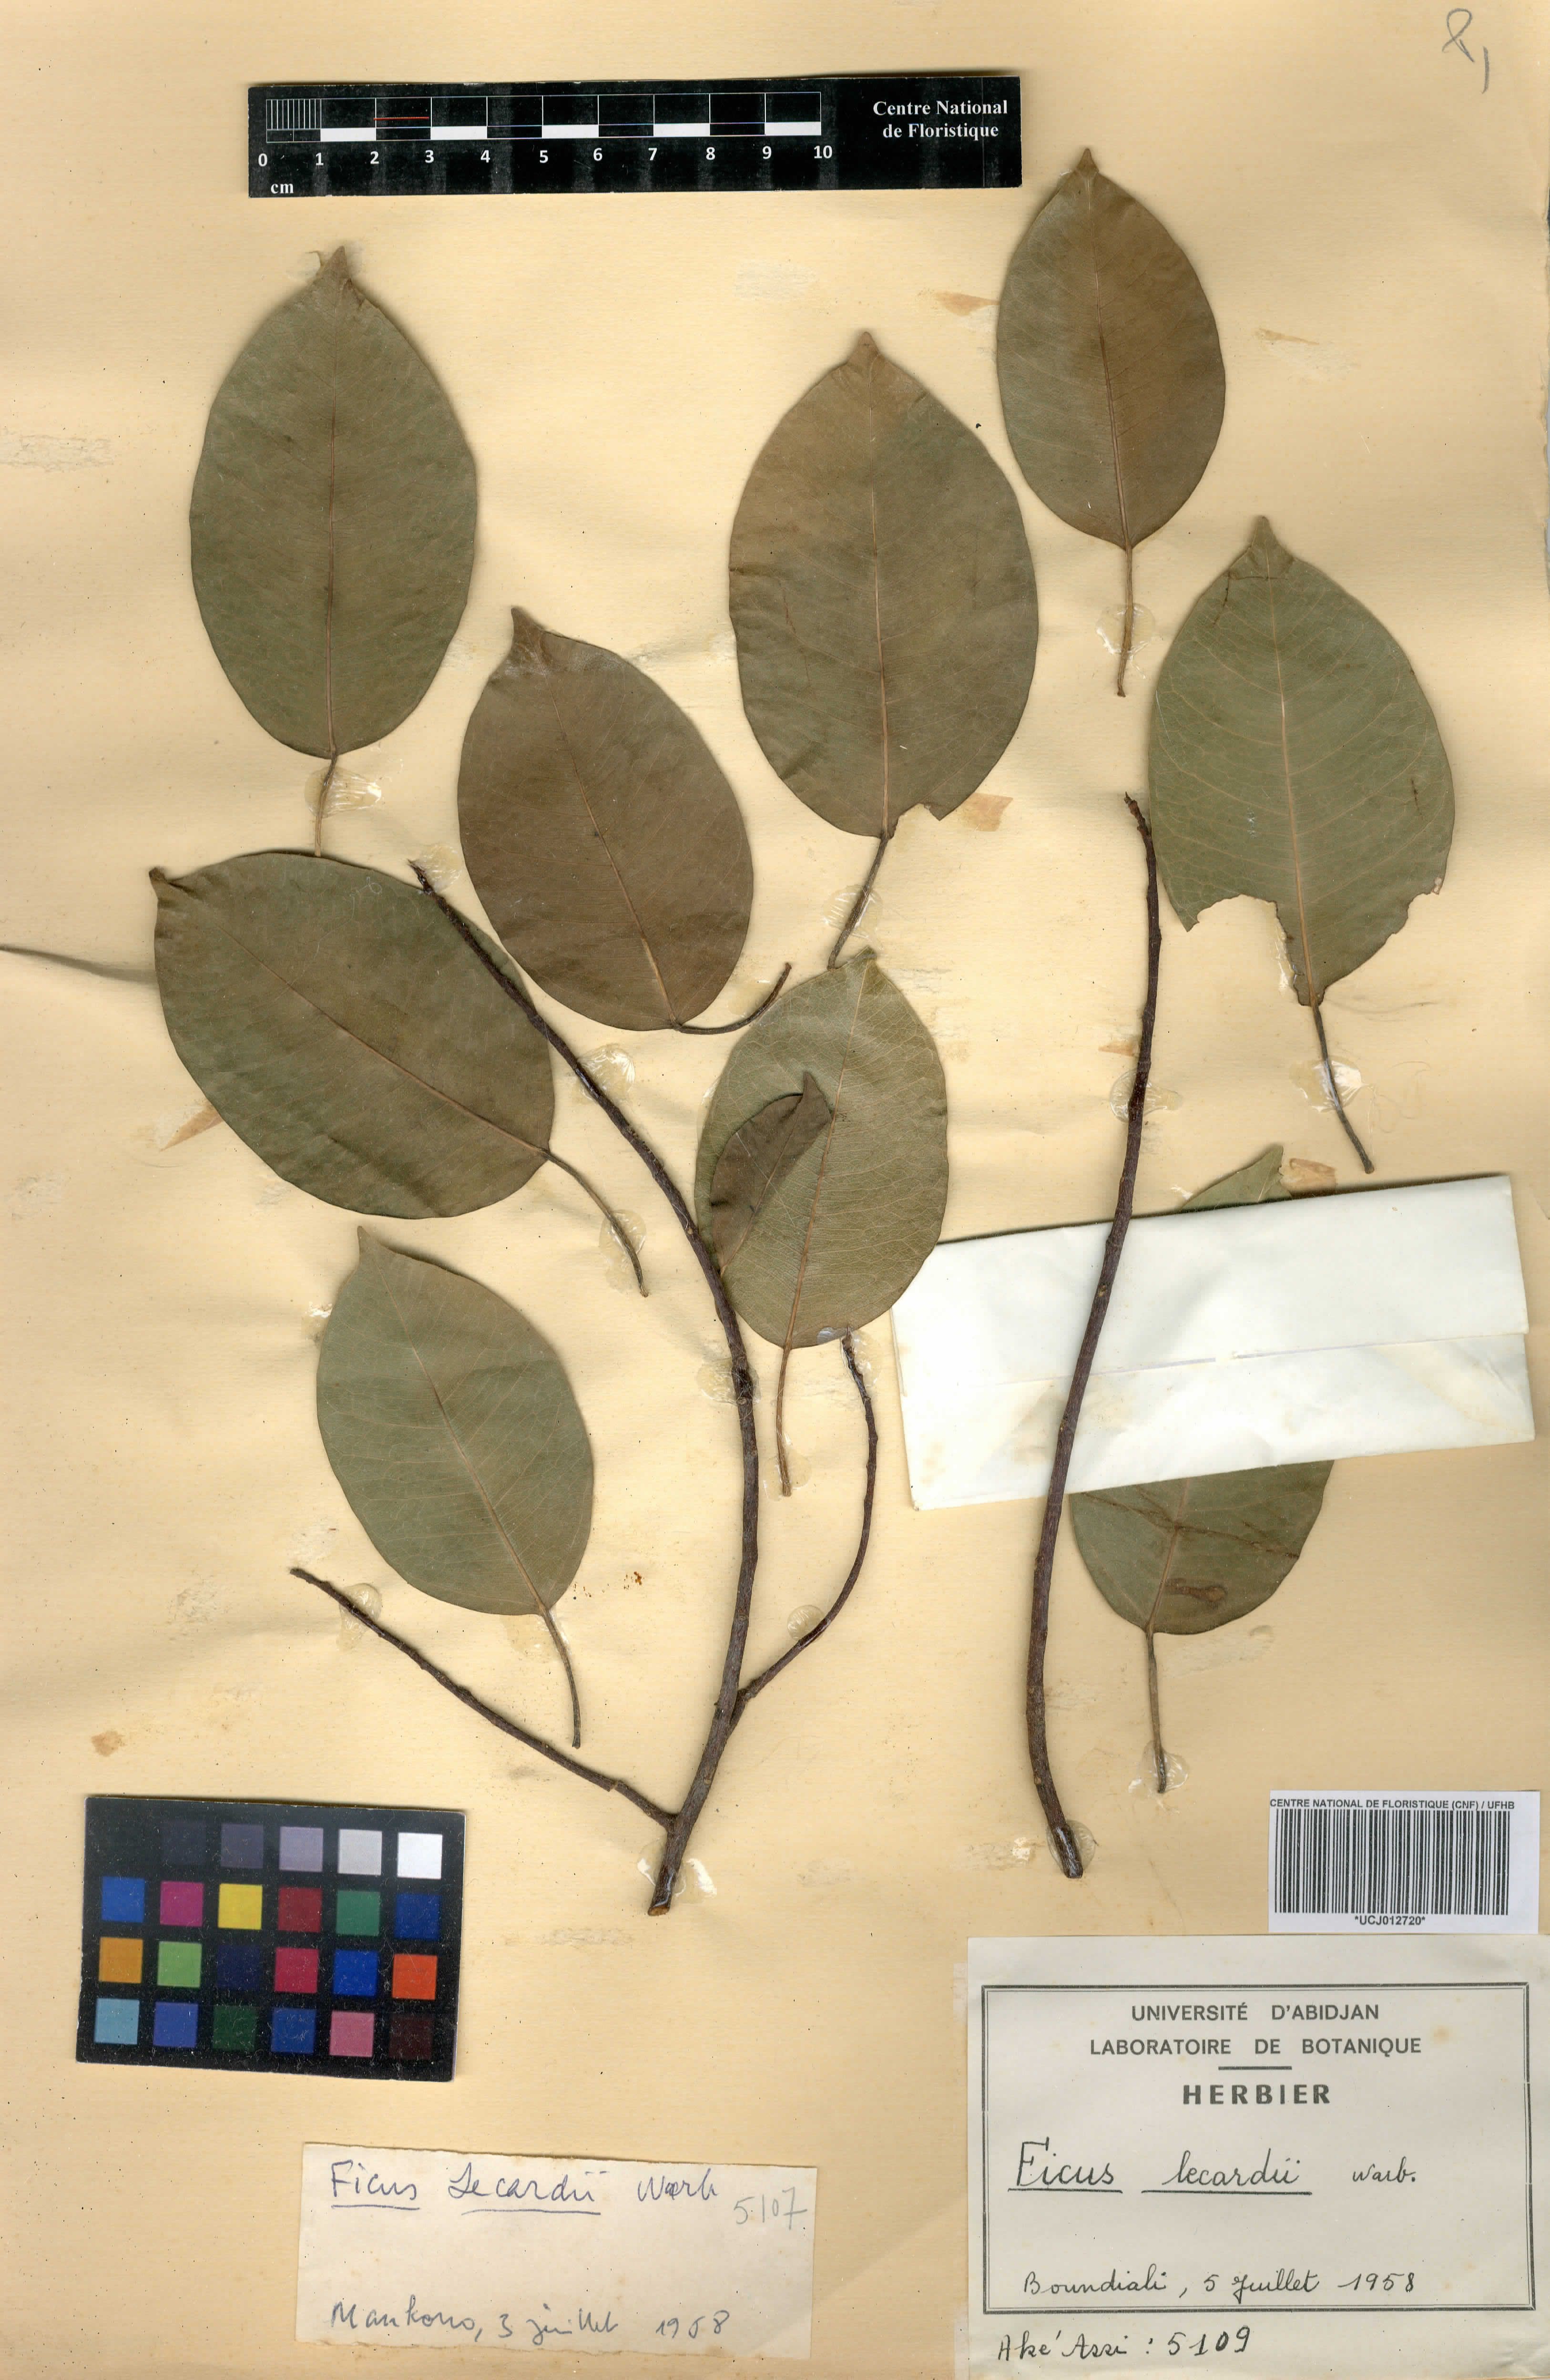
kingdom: Plantae
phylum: Tracheophyta
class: Magnoliopsida
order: Rosales
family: Moraceae
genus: Ficus
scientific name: Ficus cordata
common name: Namaqua rock fig
